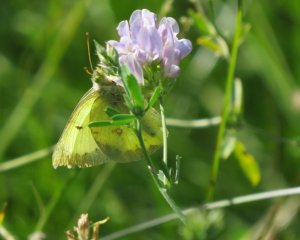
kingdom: Animalia
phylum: Arthropoda
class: Insecta
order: Lepidoptera
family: Pieridae
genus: Colias
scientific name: Colias philodice
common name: Clouded Sulphur
